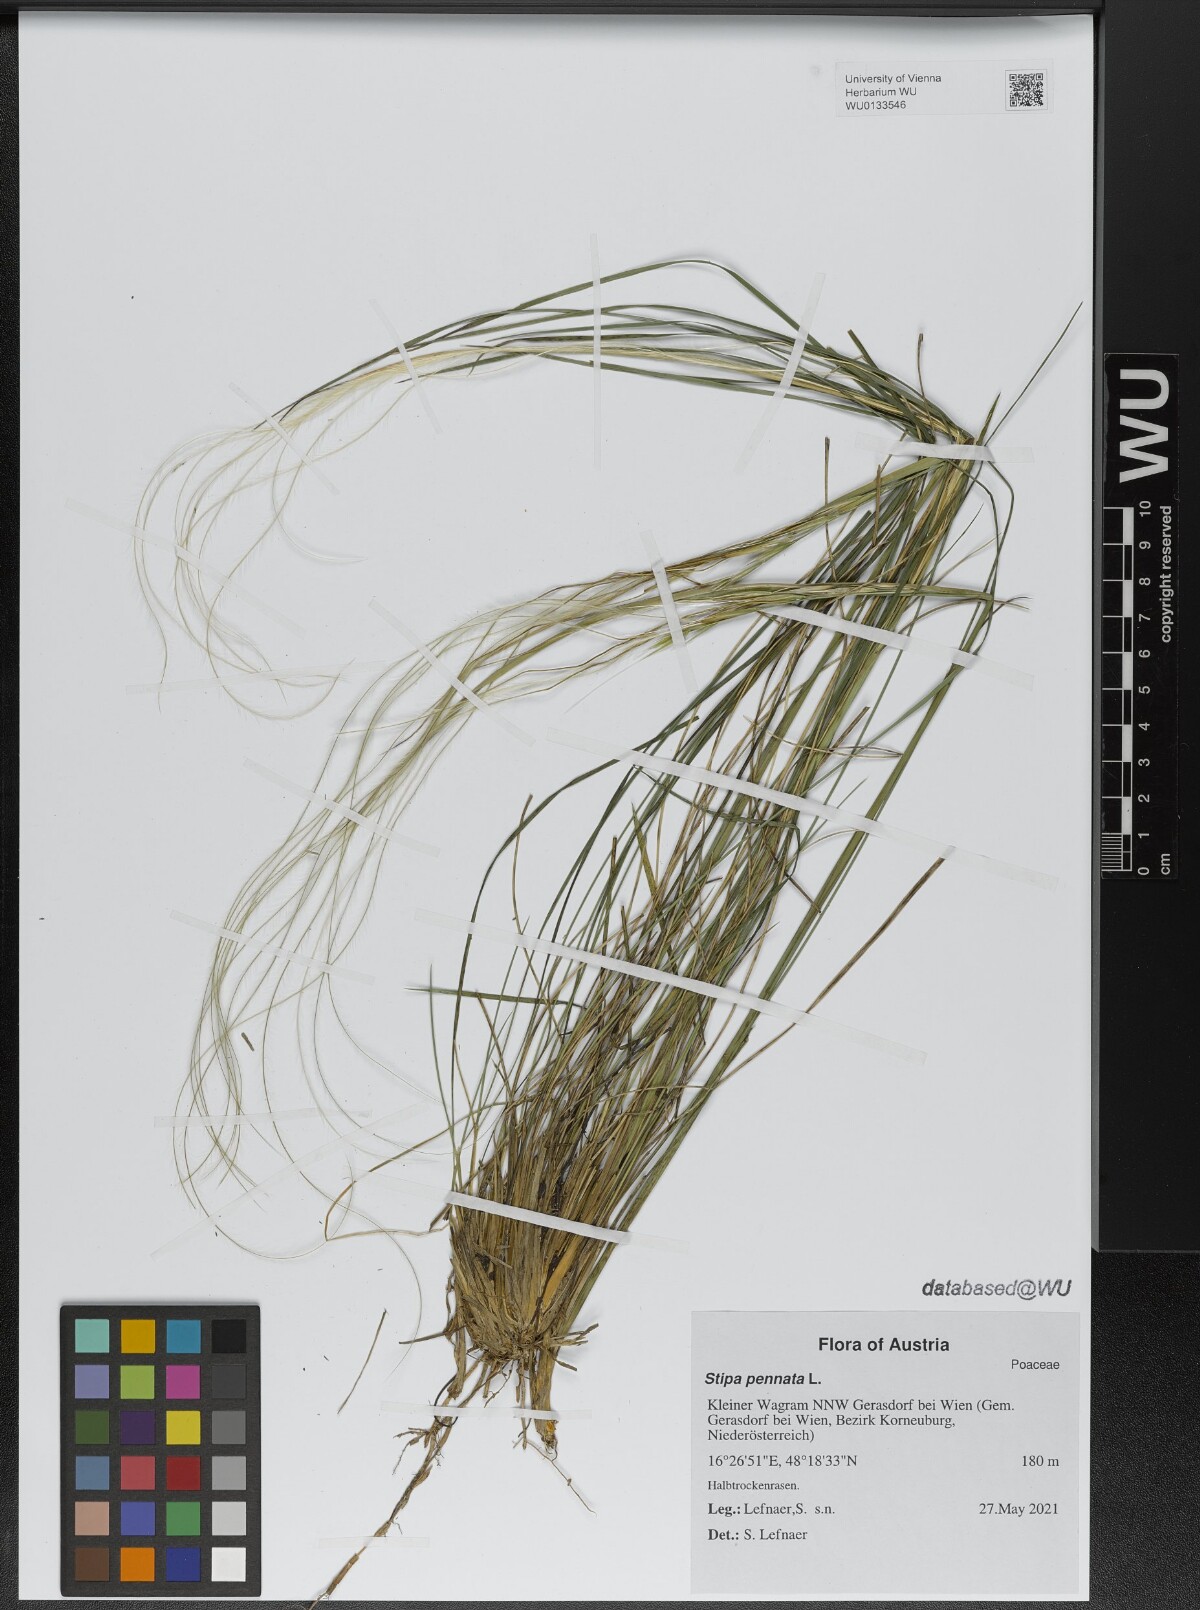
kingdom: Plantae
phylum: Tracheophyta
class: Liliopsida
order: Poales
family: Poaceae
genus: Stipa
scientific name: Stipa pennata
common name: European feather grass
